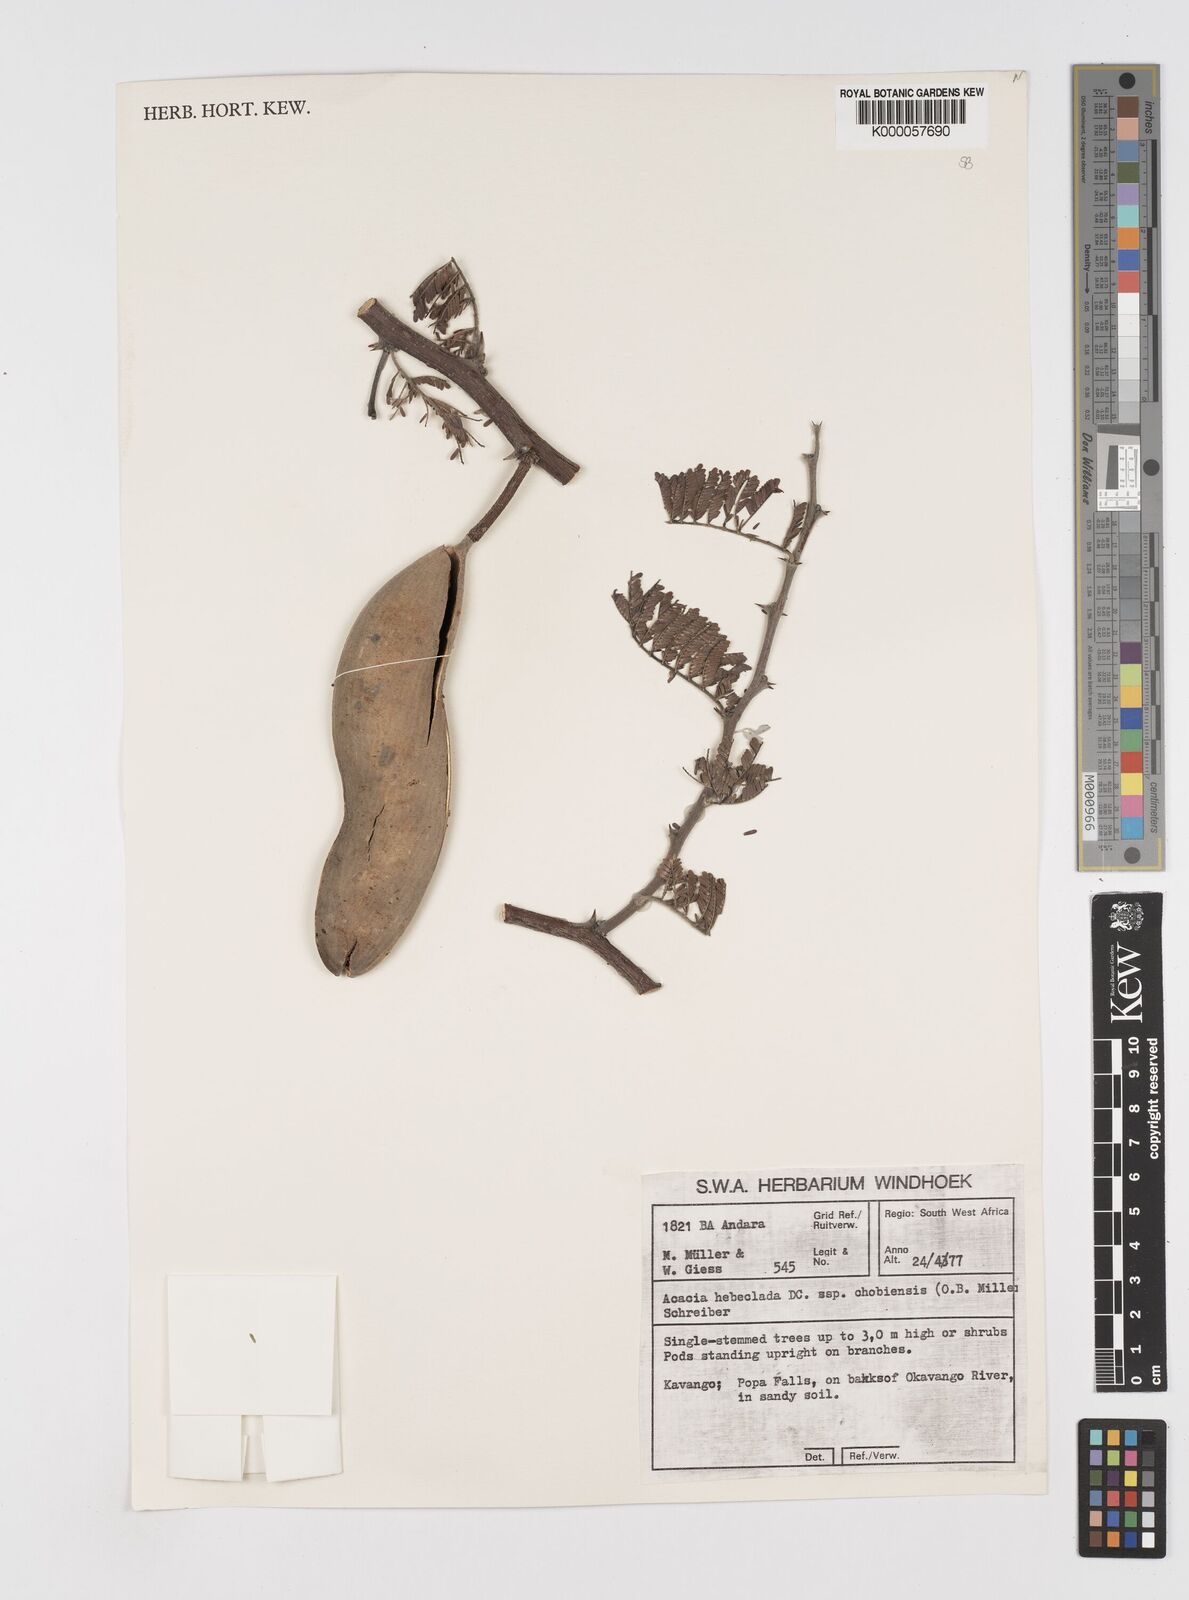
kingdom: Plantae
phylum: Tracheophyta
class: Magnoliopsida
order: Fabales
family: Fabaceae
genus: Vachellia
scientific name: Vachellia hebeclada
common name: Candle thorn
